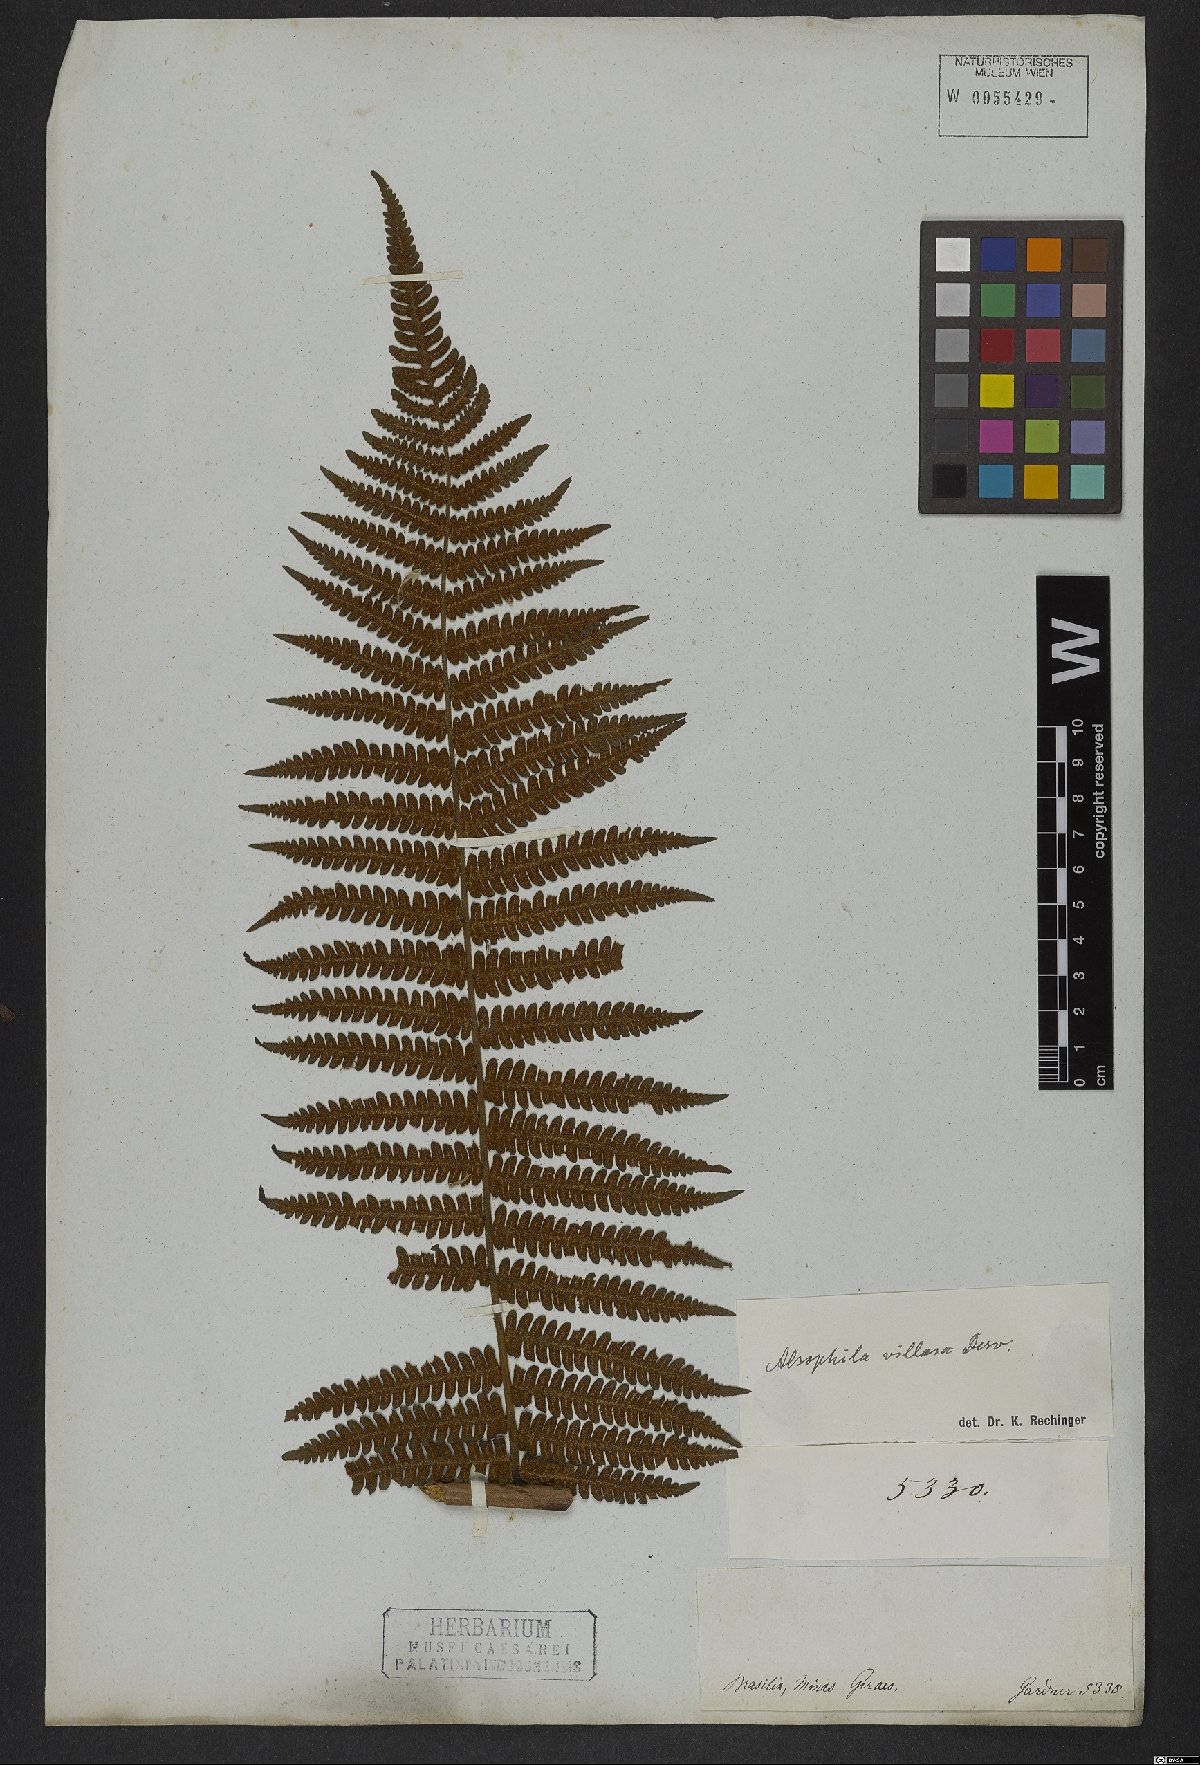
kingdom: Plantae
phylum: Tracheophyta
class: Polypodiopsida
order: Cyatheales
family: Cyatheaceae
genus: Cyathea
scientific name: Cyathea villosa
